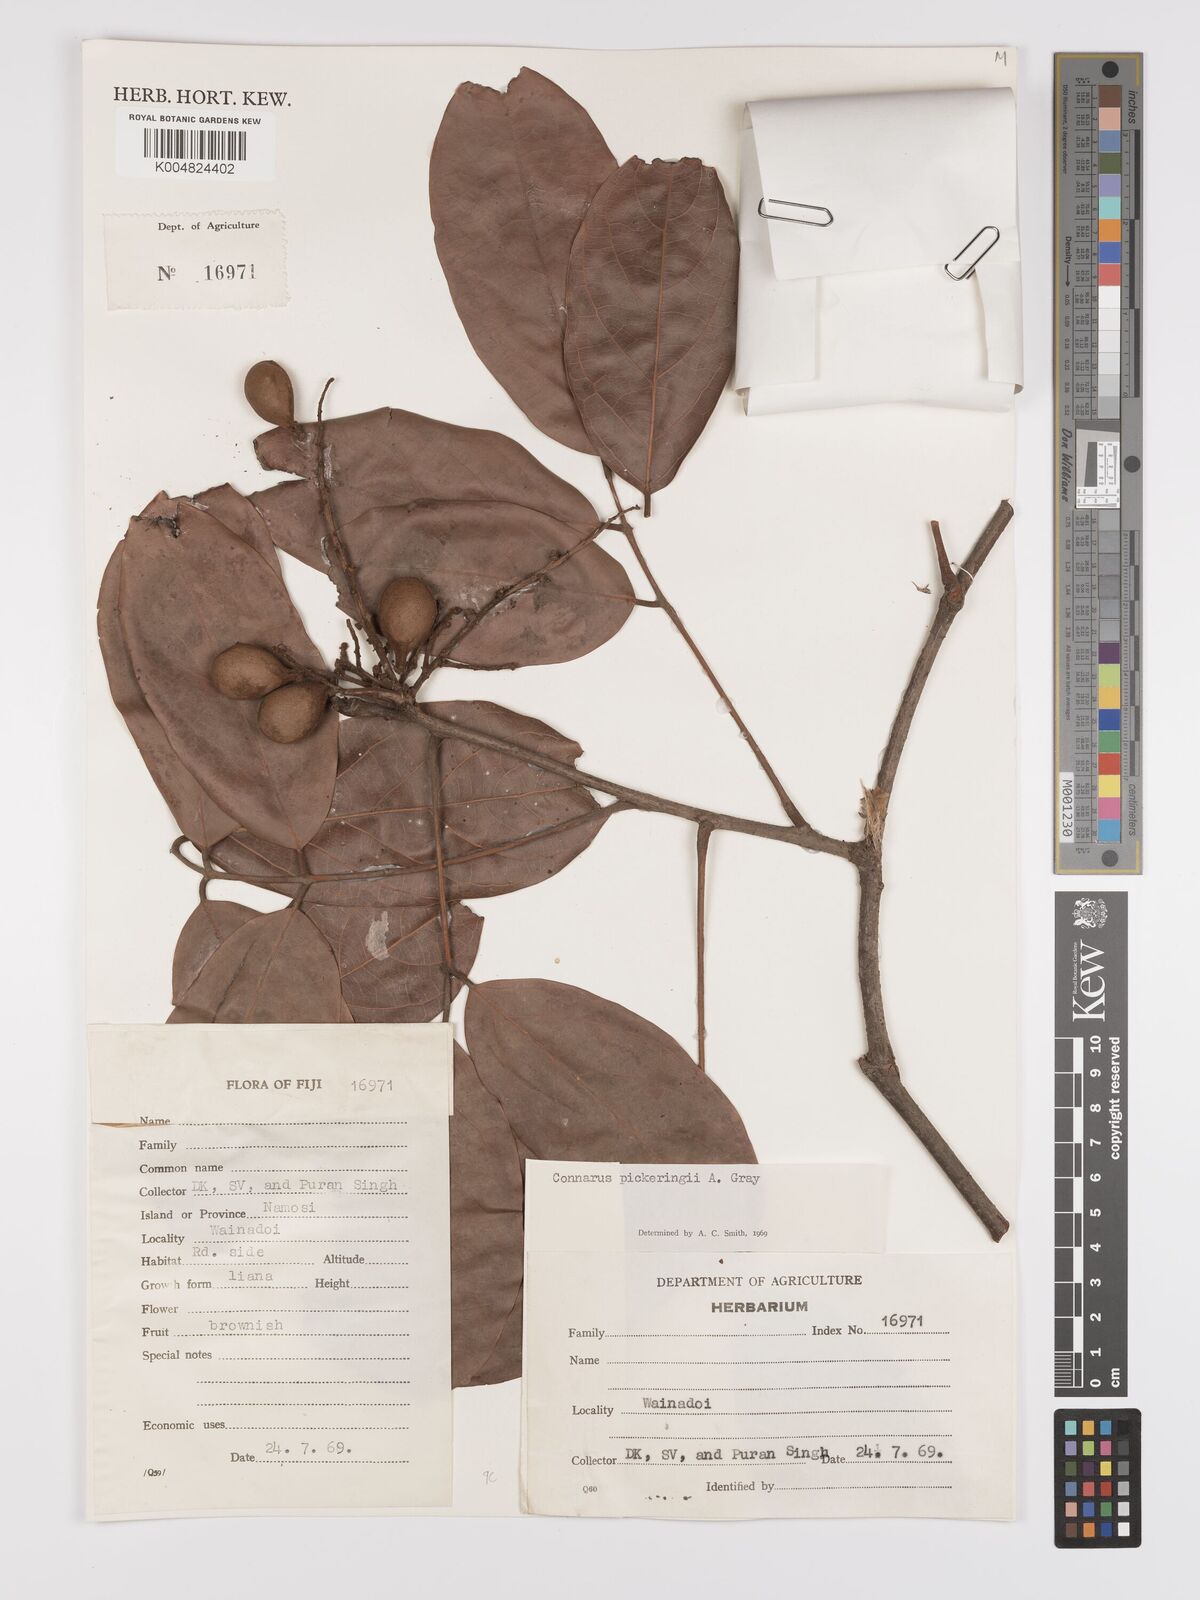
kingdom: Plantae
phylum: Tracheophyta
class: Magnoliopsida
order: Oxalidales
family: Connaraceae
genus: Connarus
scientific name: Connarus pickeringii
